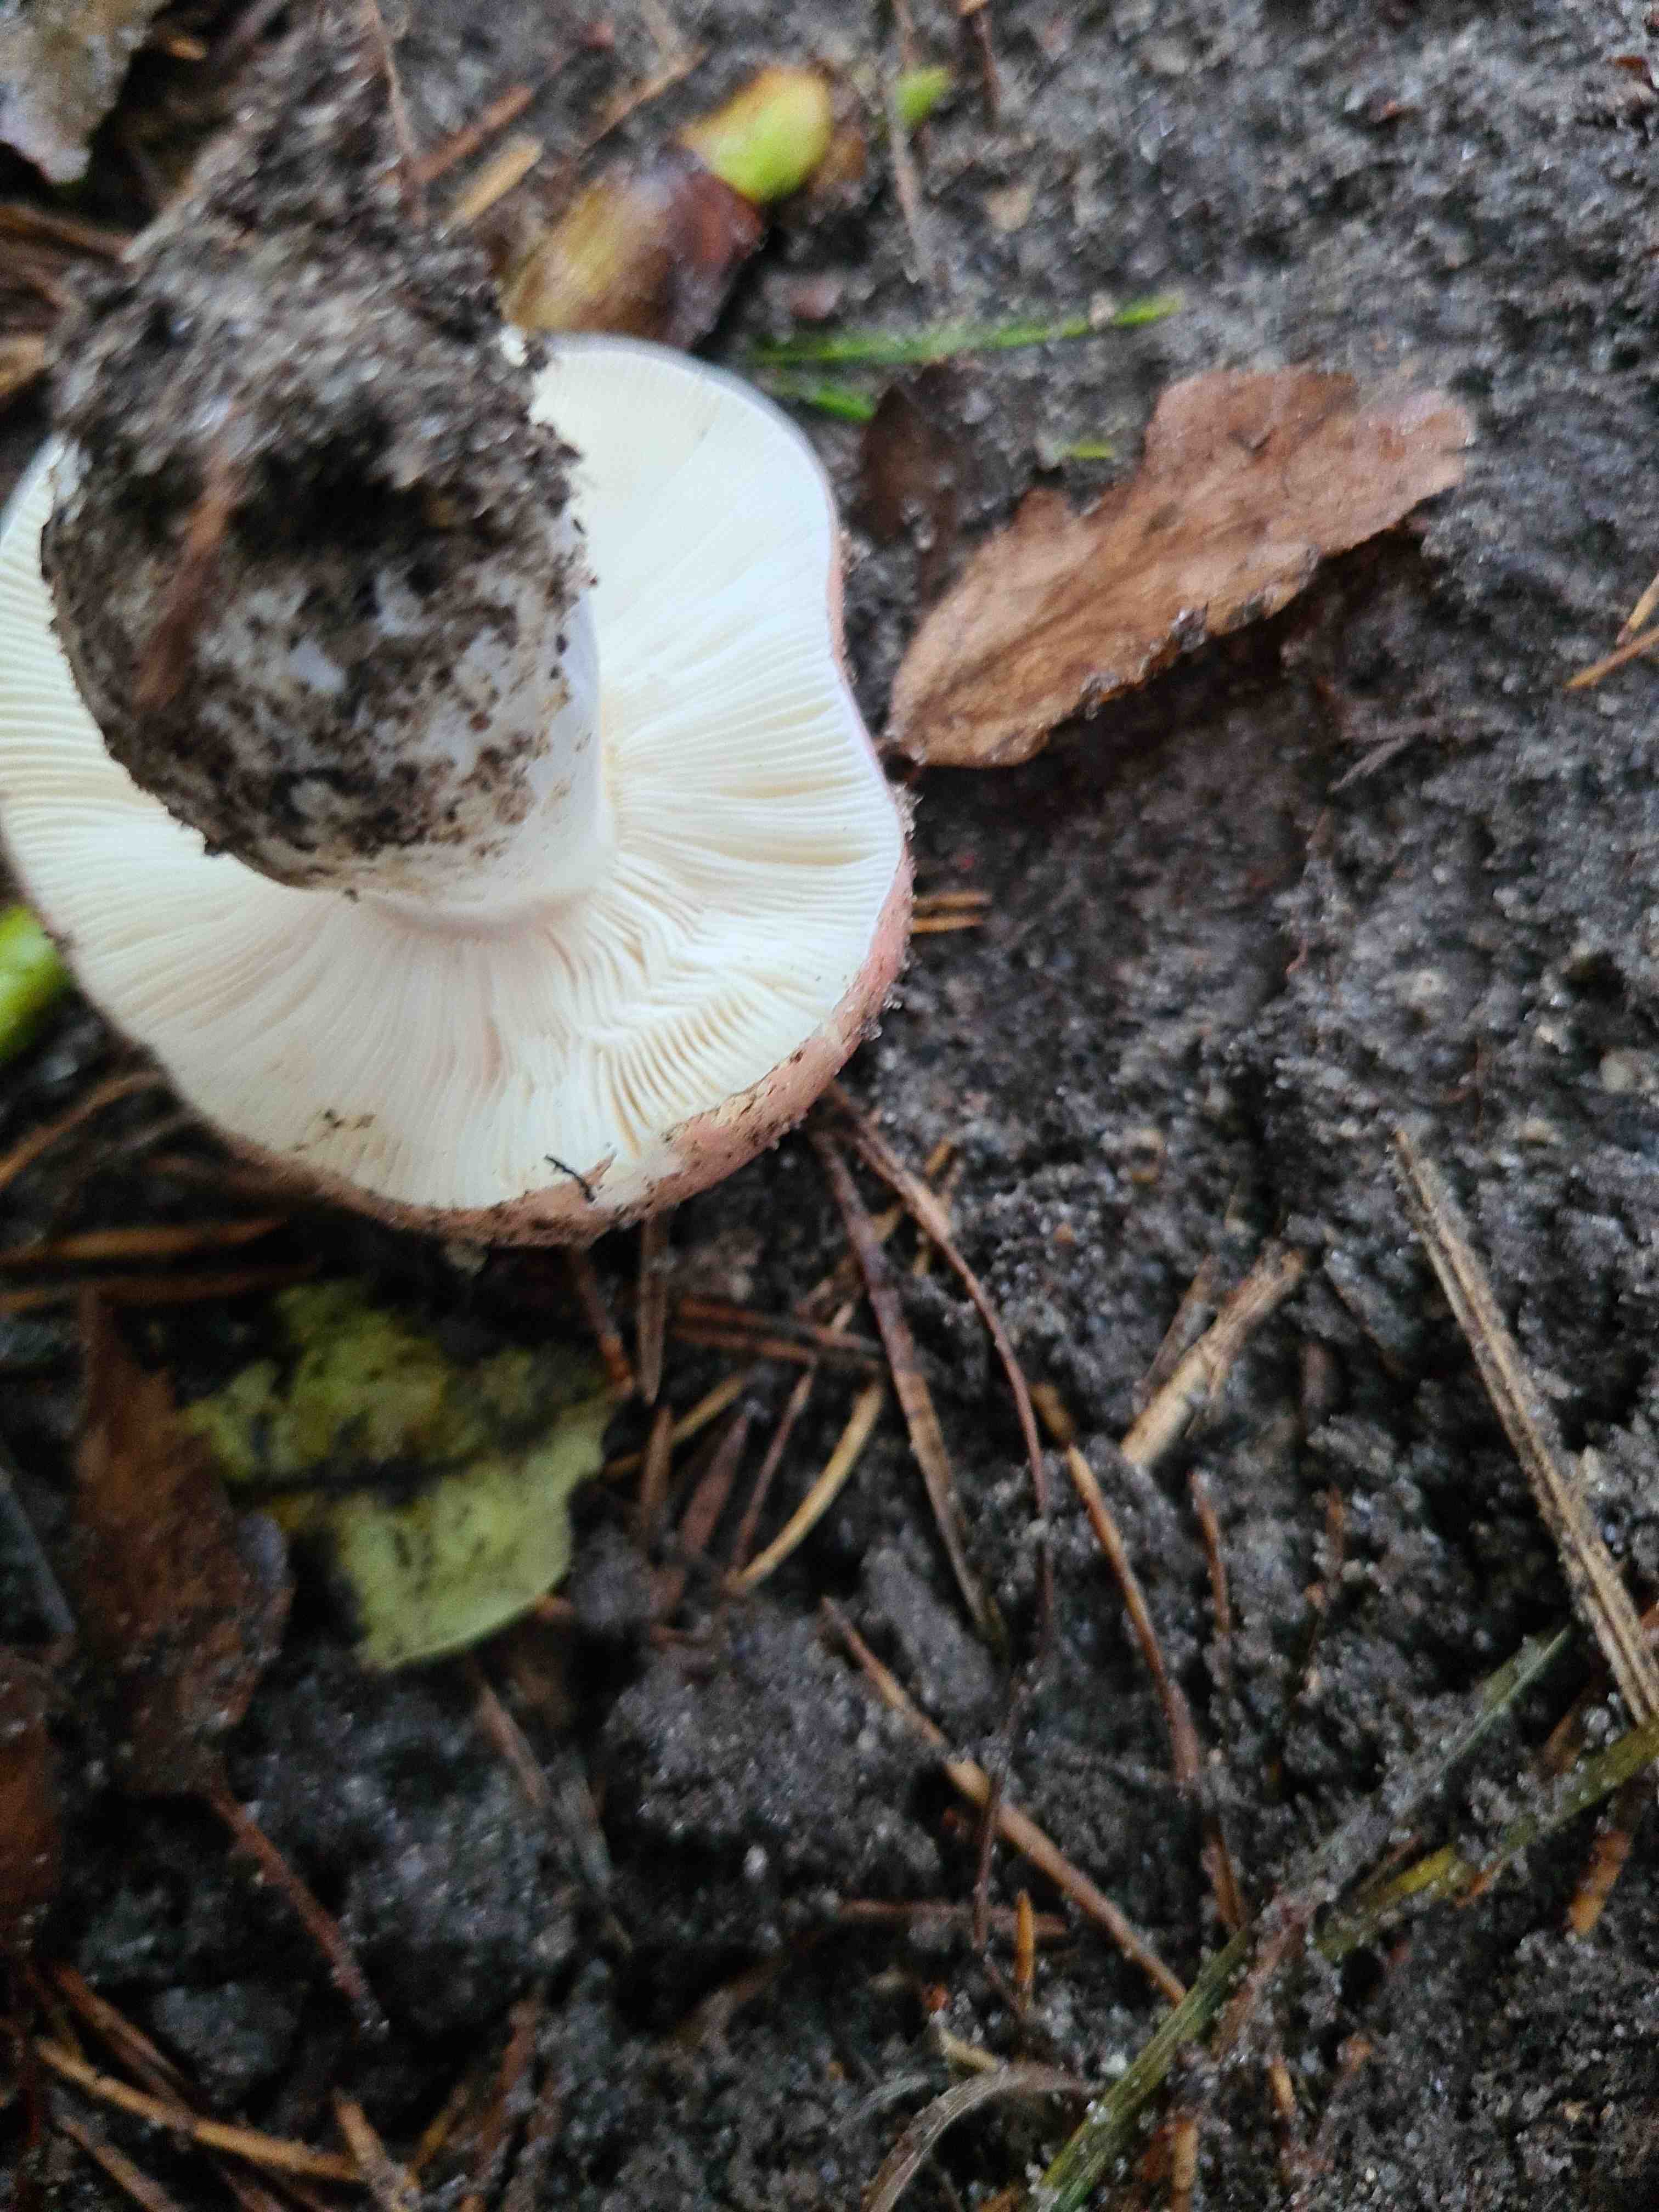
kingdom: Fungi
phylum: Basidiomycota
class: Agaricomycetes
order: Russulales
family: Russulaceae
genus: Russula
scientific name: Russula
